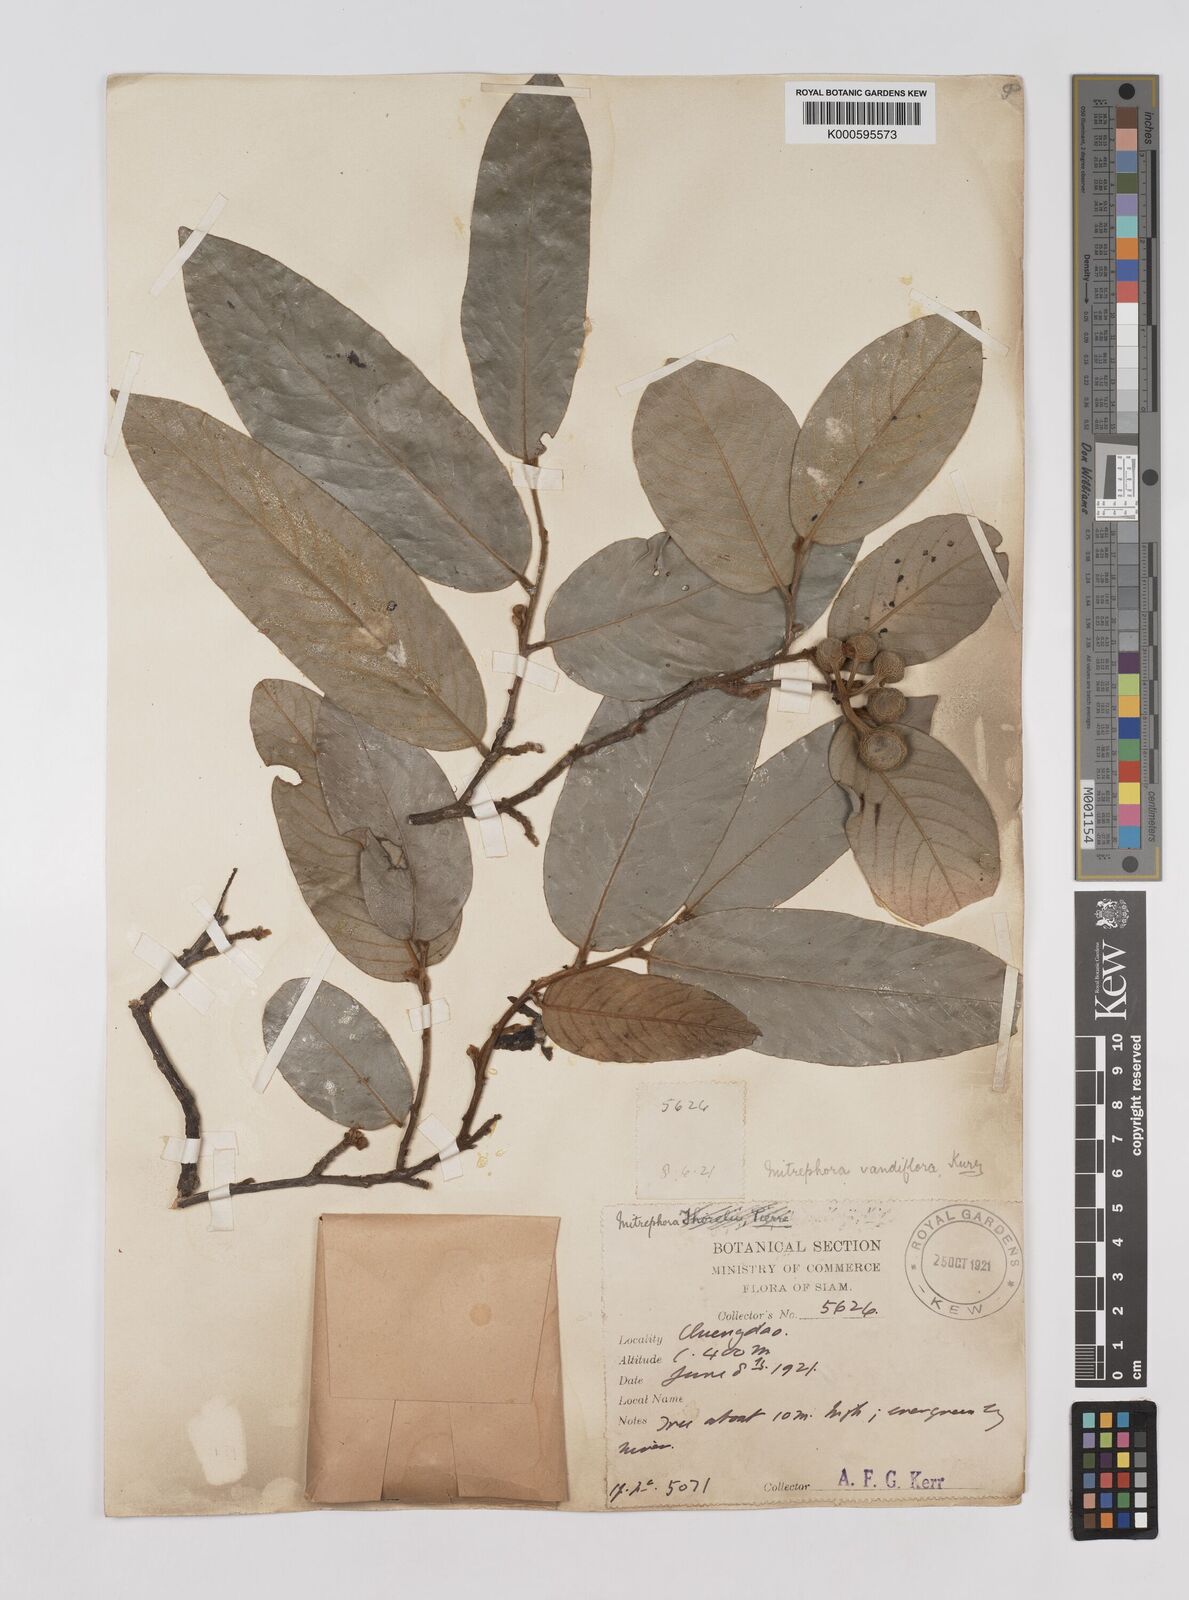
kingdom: Plantae
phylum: Tracheophyta
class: Magnoliopsida
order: Magnoliales
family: Annonaceae
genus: Mitrephora
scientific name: Mitrephora teysmannii
